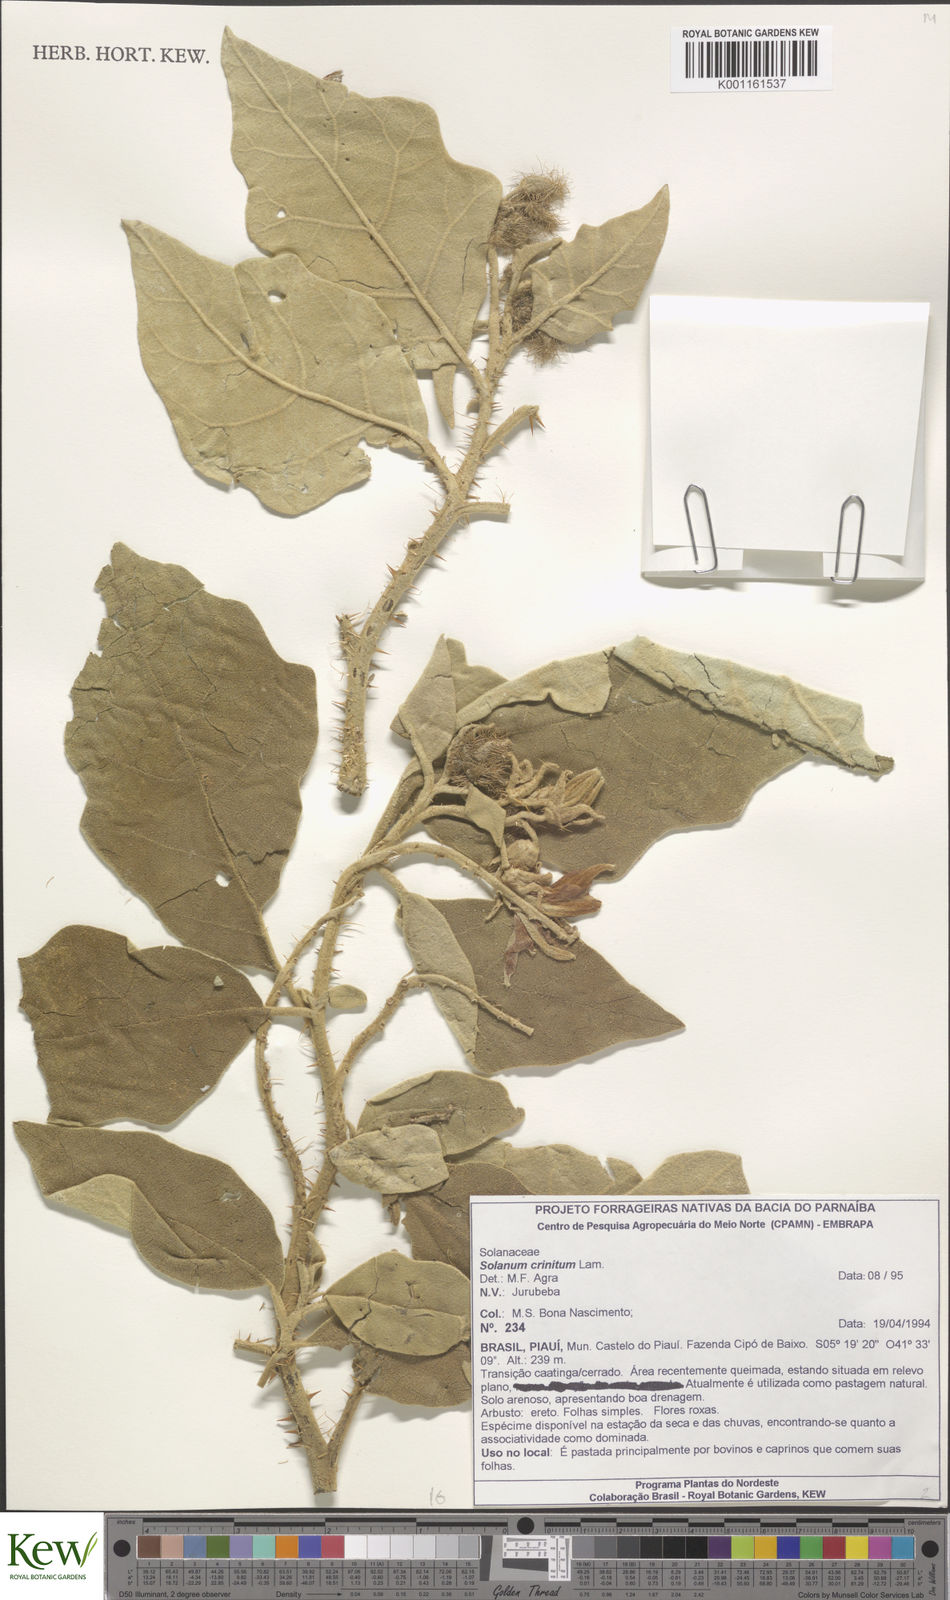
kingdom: Plantae
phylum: Tracheophyta
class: Magnoliopsida
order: Solanales
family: Solanaceae
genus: Solanum
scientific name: Solanum crinitum
